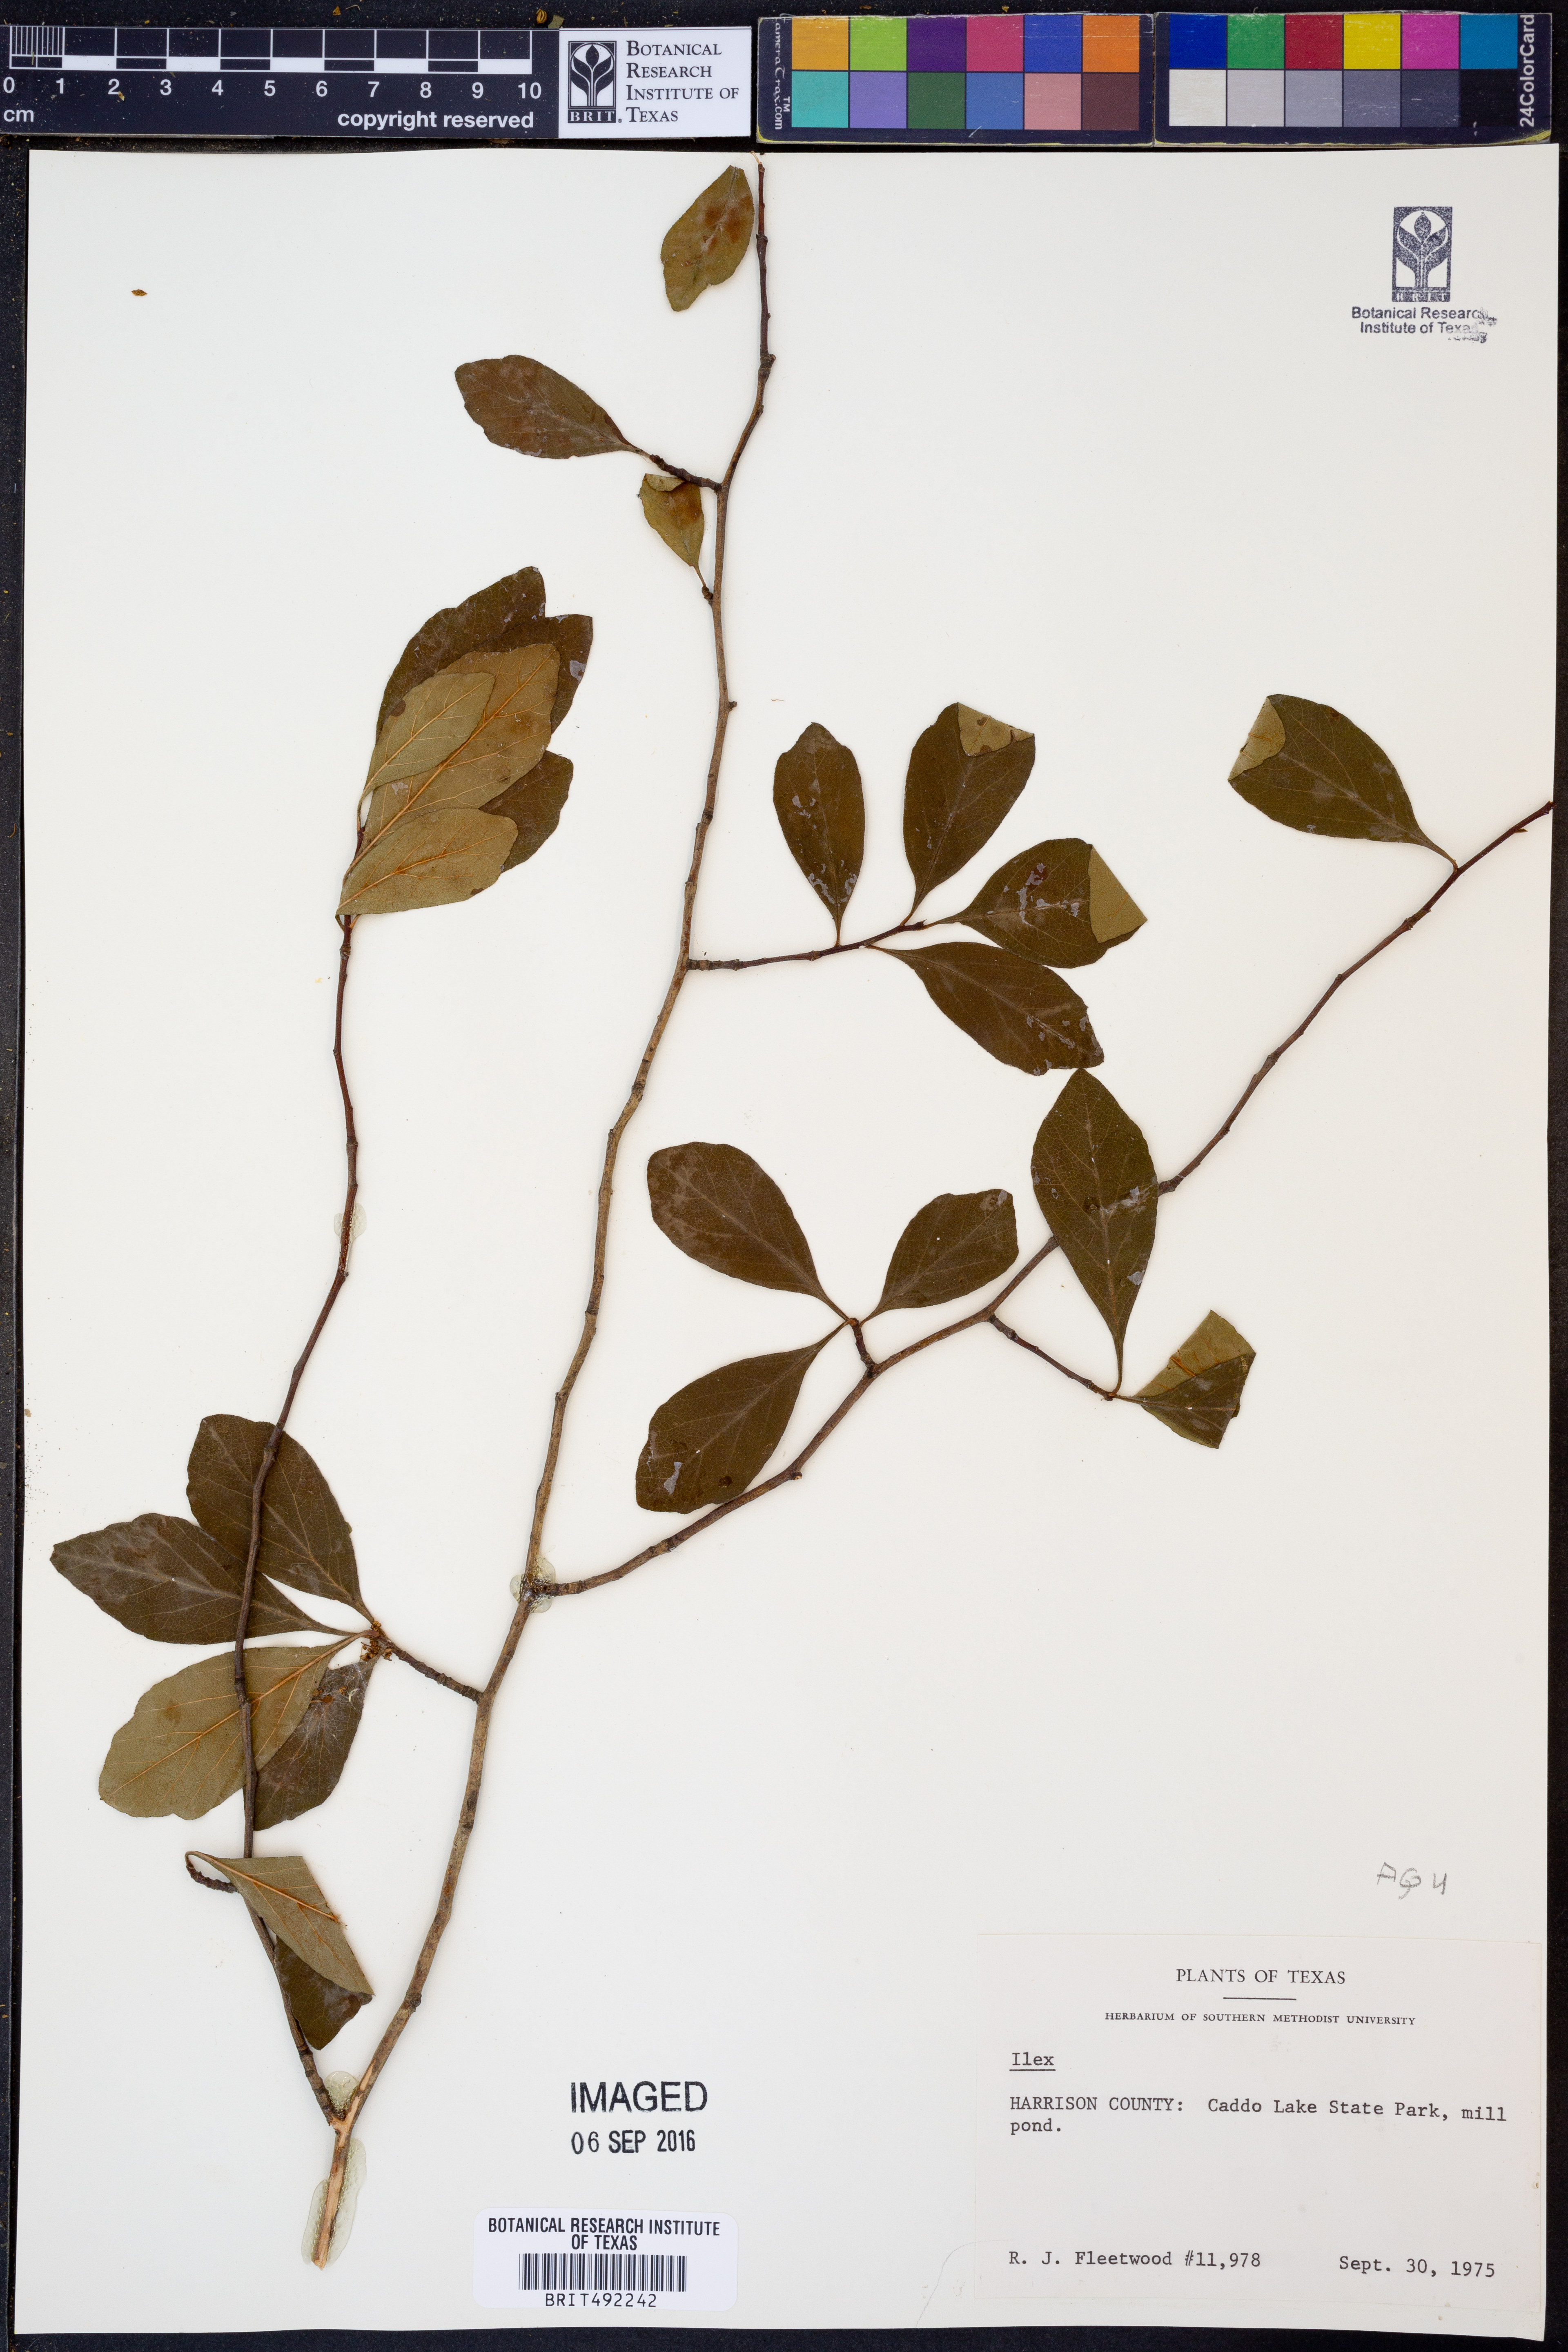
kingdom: Plantae
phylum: Tracheophyta
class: Magnoliopsida
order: Aquifoliales
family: Aquifoliaceae
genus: Ilex
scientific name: Ilex
